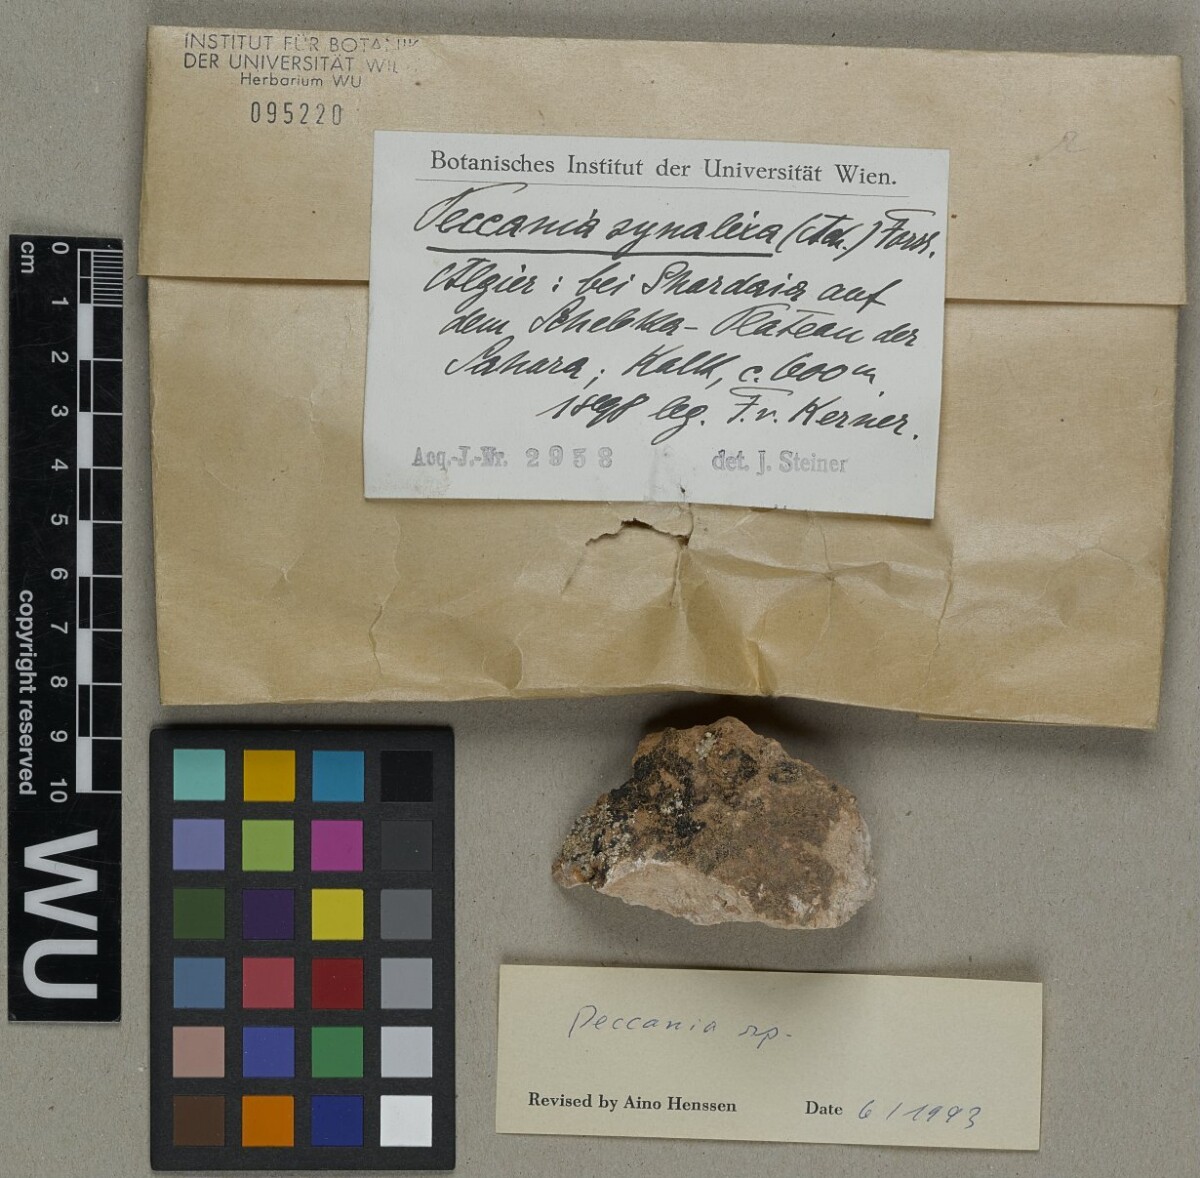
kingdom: Fungi
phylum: Ascomycota
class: Lichinomycetes
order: Lichinales
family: Lichinaceae
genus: Peccania
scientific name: Peccania
